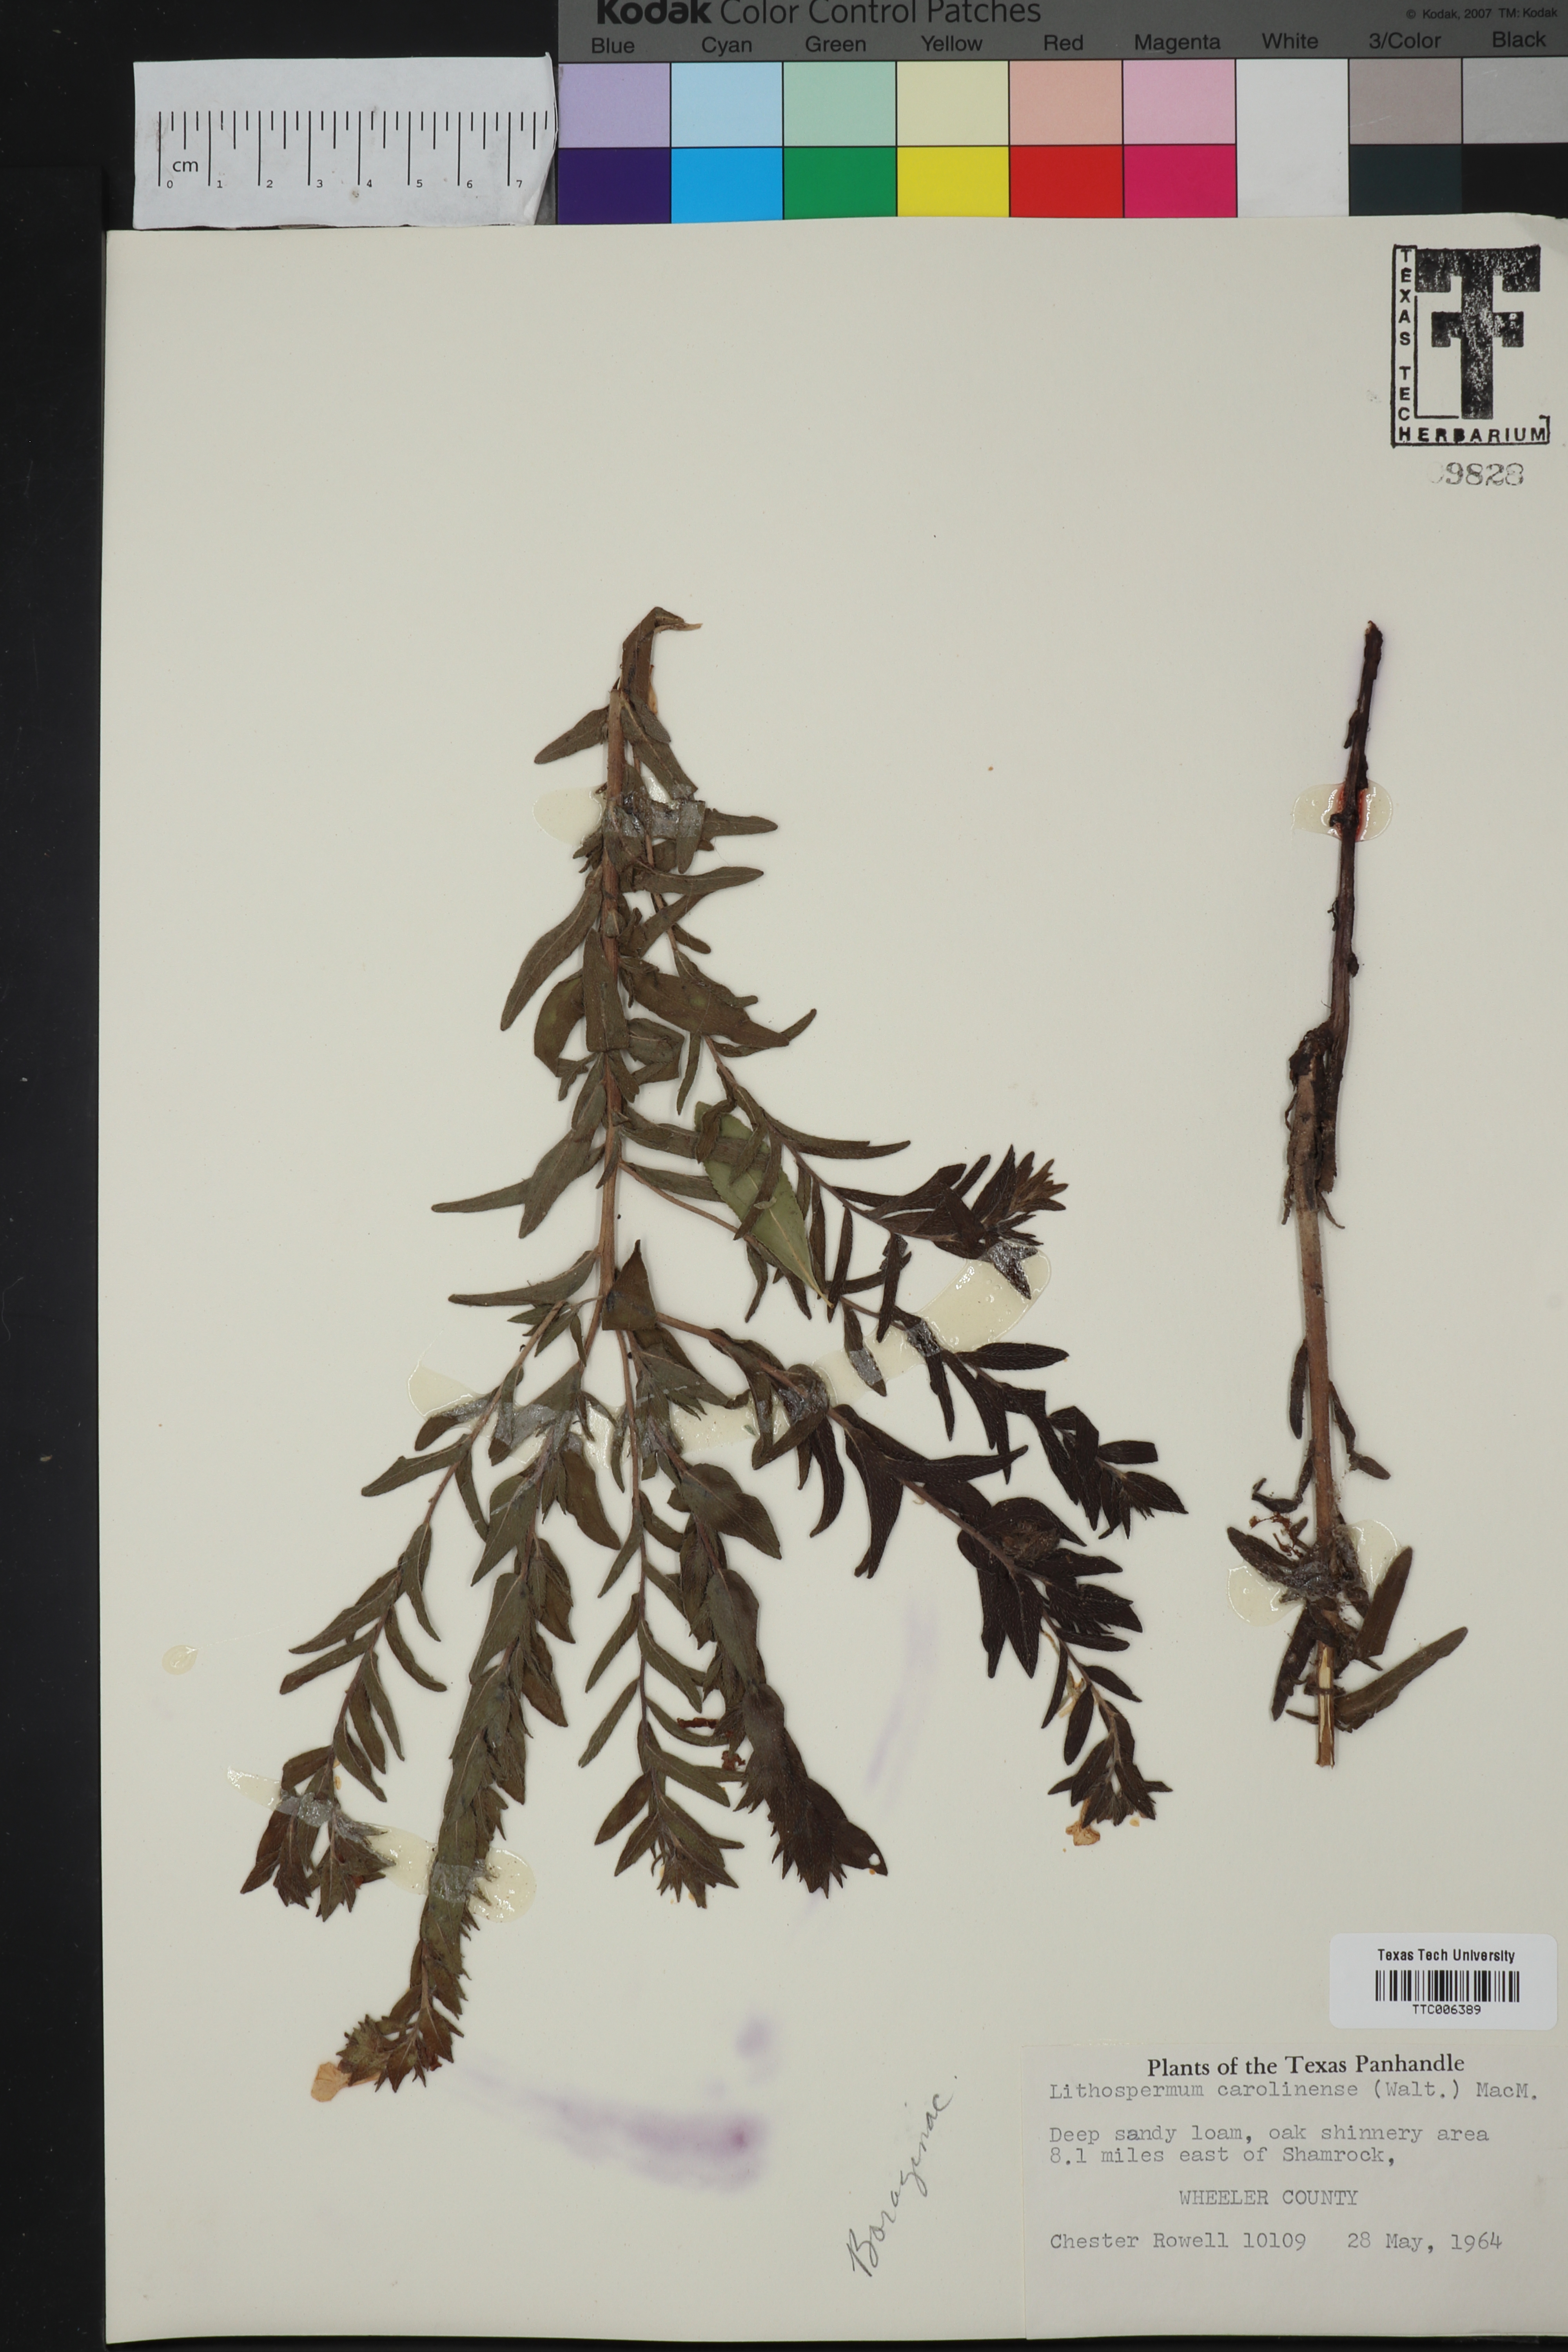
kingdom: Plantae
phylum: Tracheophyta
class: Magnoliopsida
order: Boraginales
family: Boraginaceae
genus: Lithospermum
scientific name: Lithospermum carolinense
